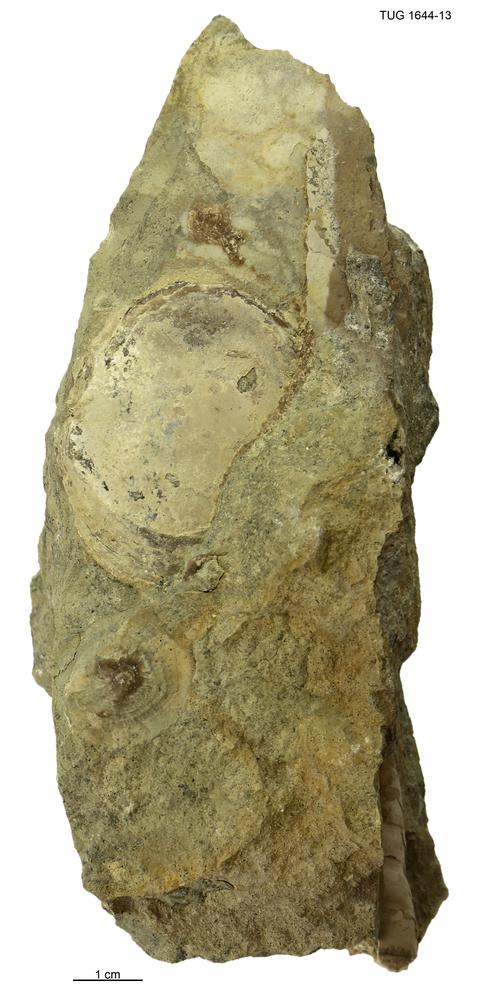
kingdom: Animalia
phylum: Mollusca
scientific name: Mollusca
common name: Mollusca
